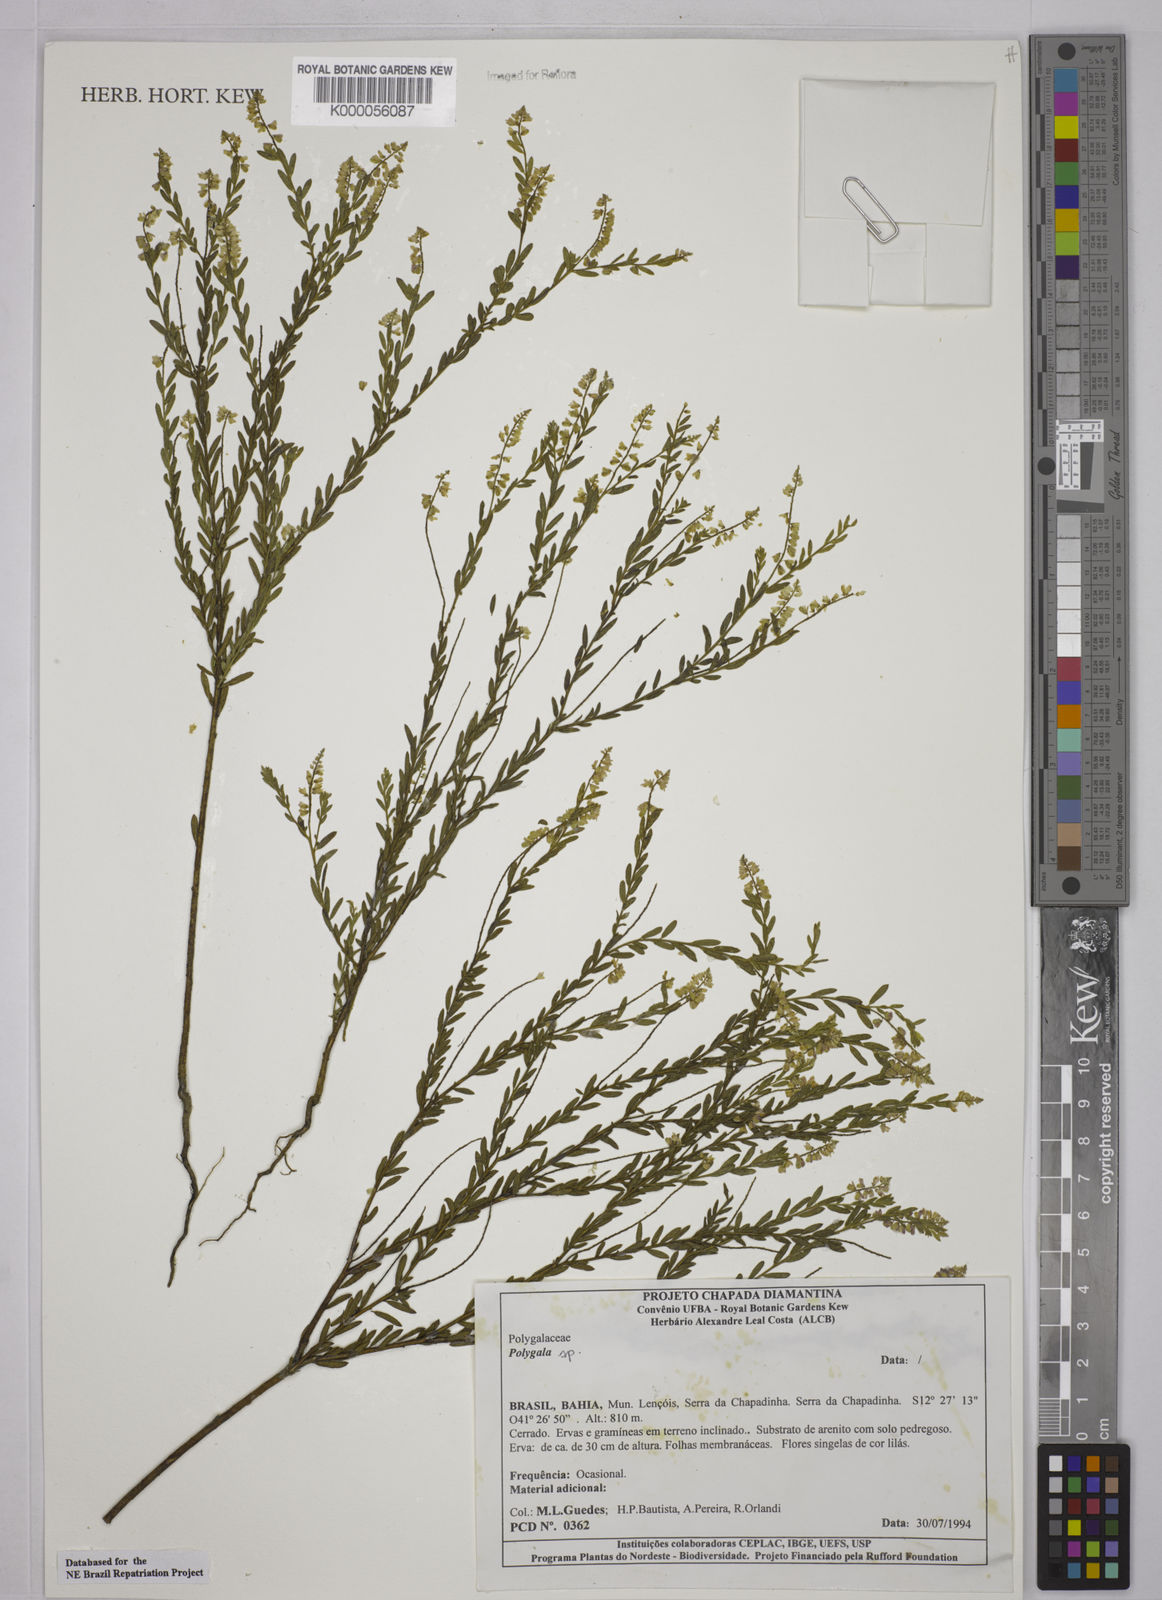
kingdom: Plantae
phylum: Tracheophyta
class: Magnoliopsida
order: Fabales
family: Polygalaceae
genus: Polygala
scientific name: Polygala
